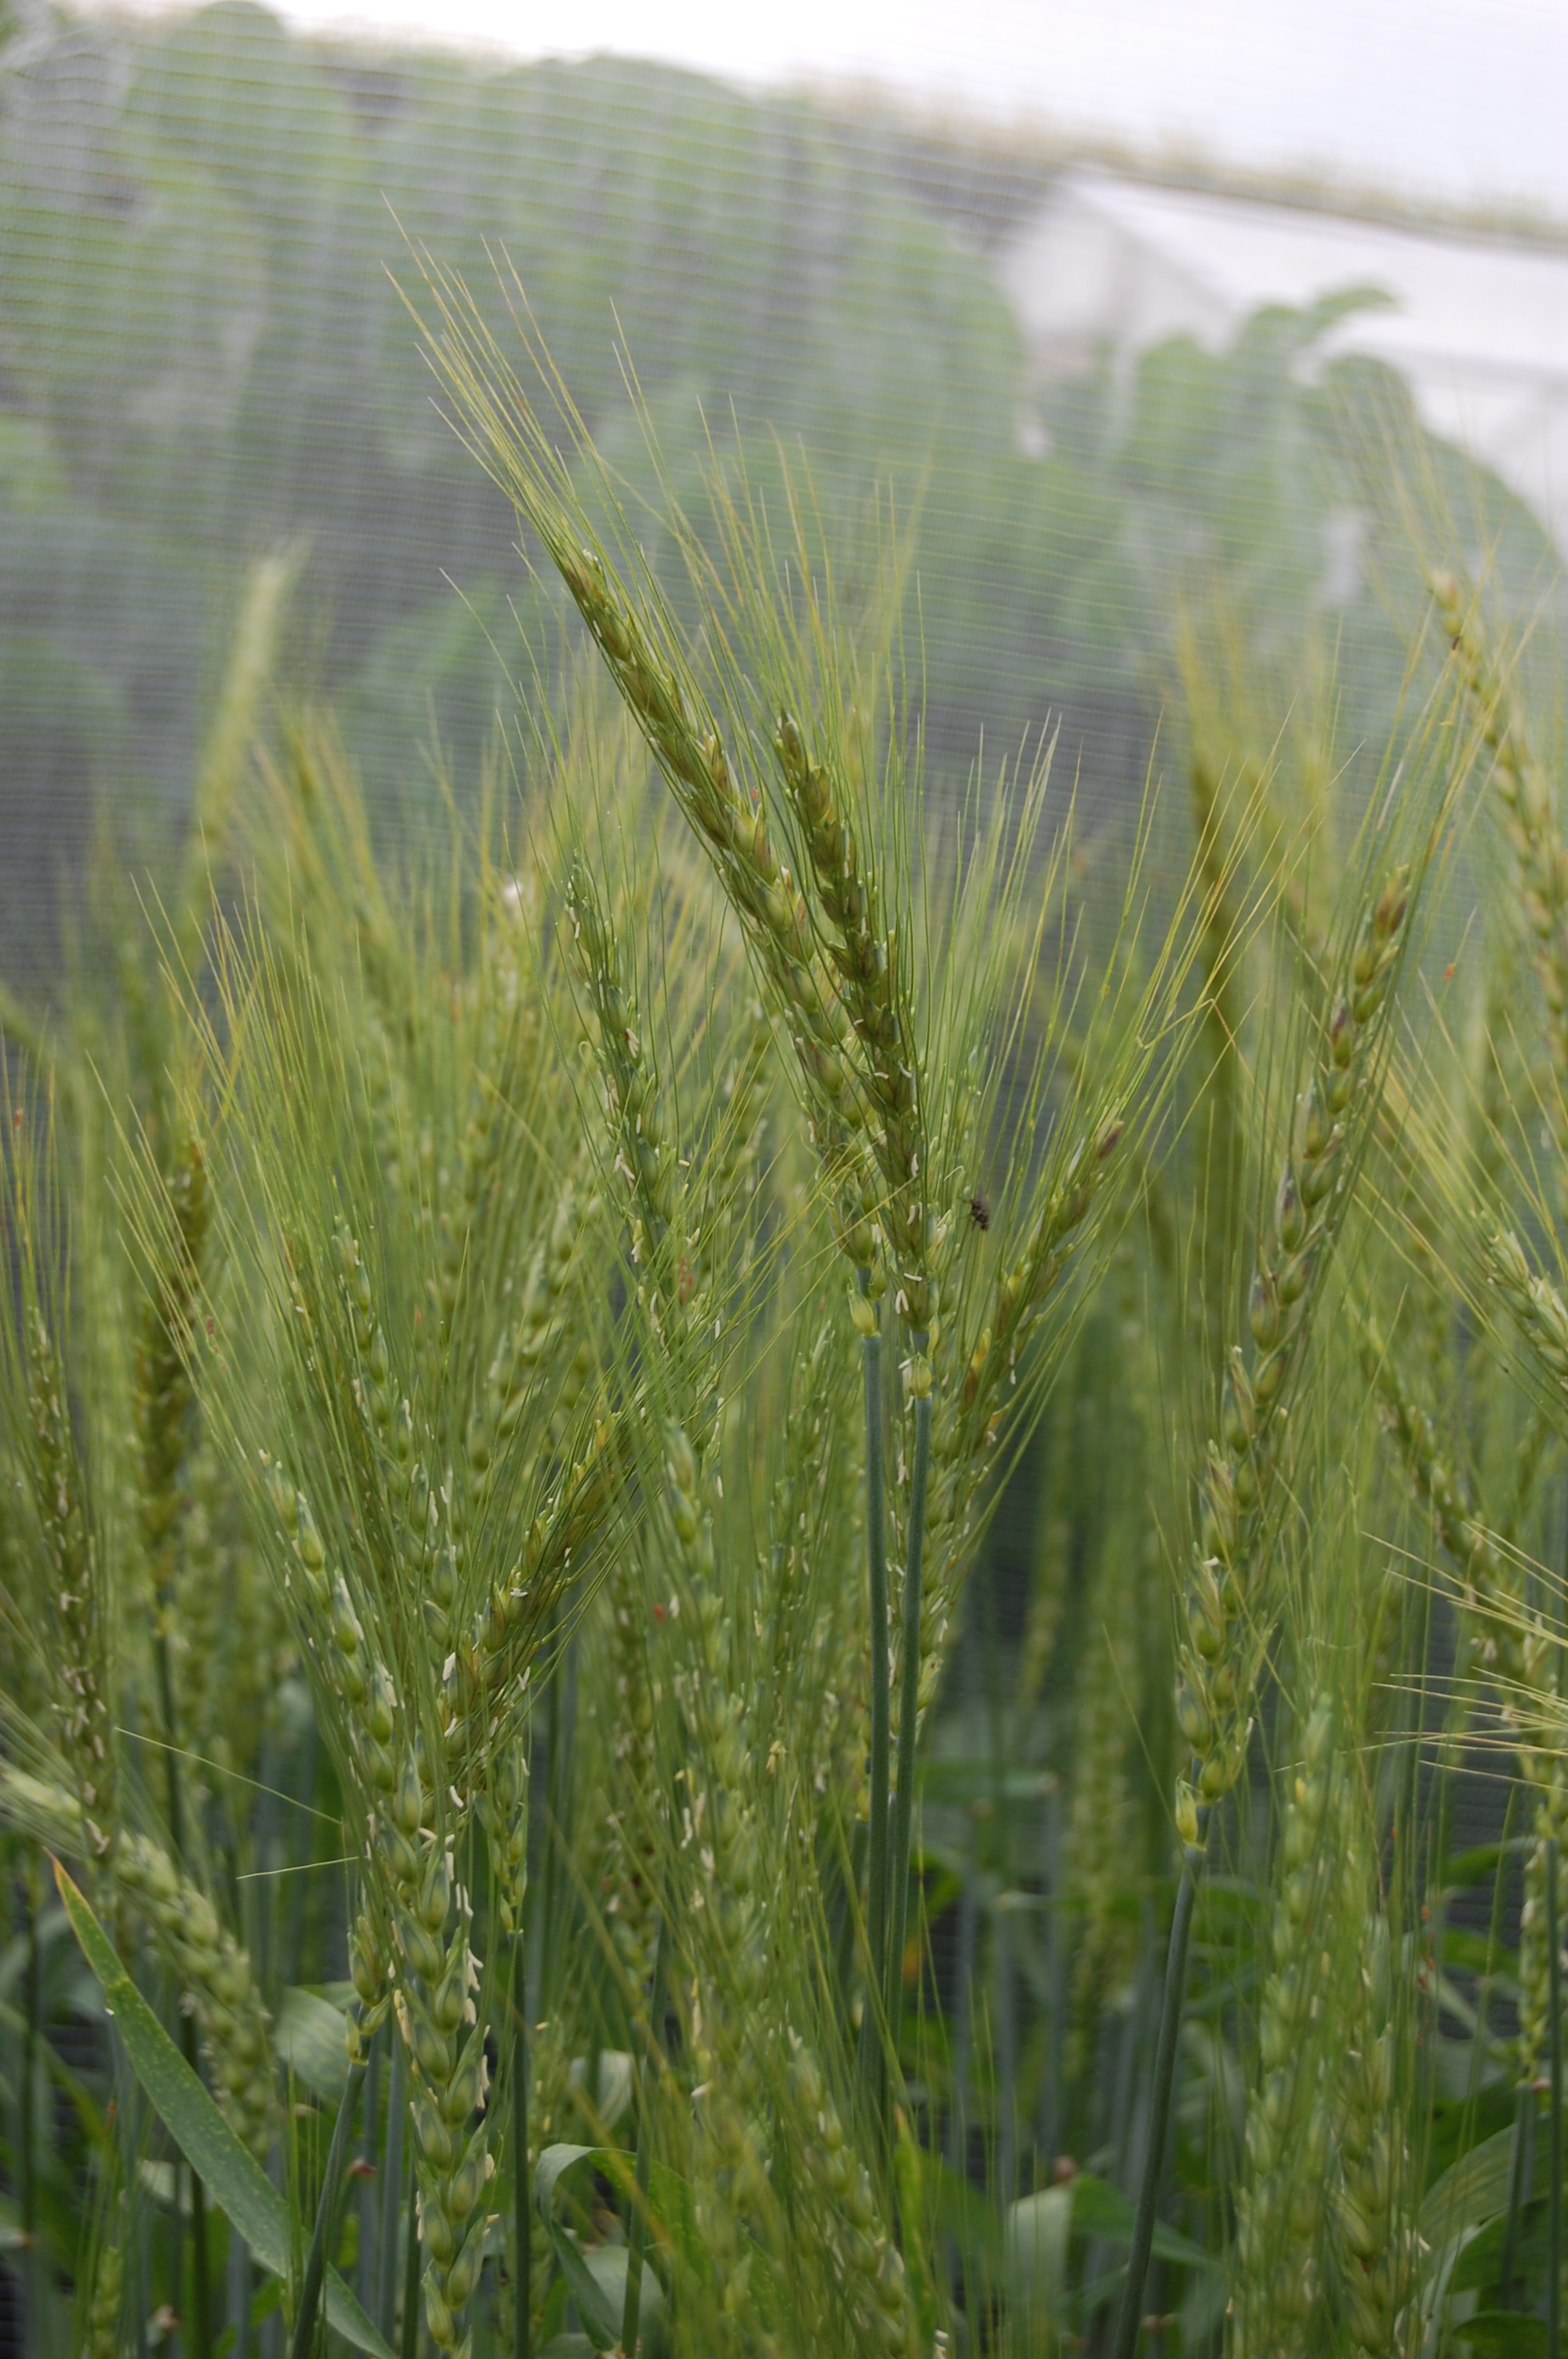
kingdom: Plantae
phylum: Tracheophyta
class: Liliopsida
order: Poales
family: Poaceae
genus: Triticum
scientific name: Triticum aestivum
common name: Common wheat
